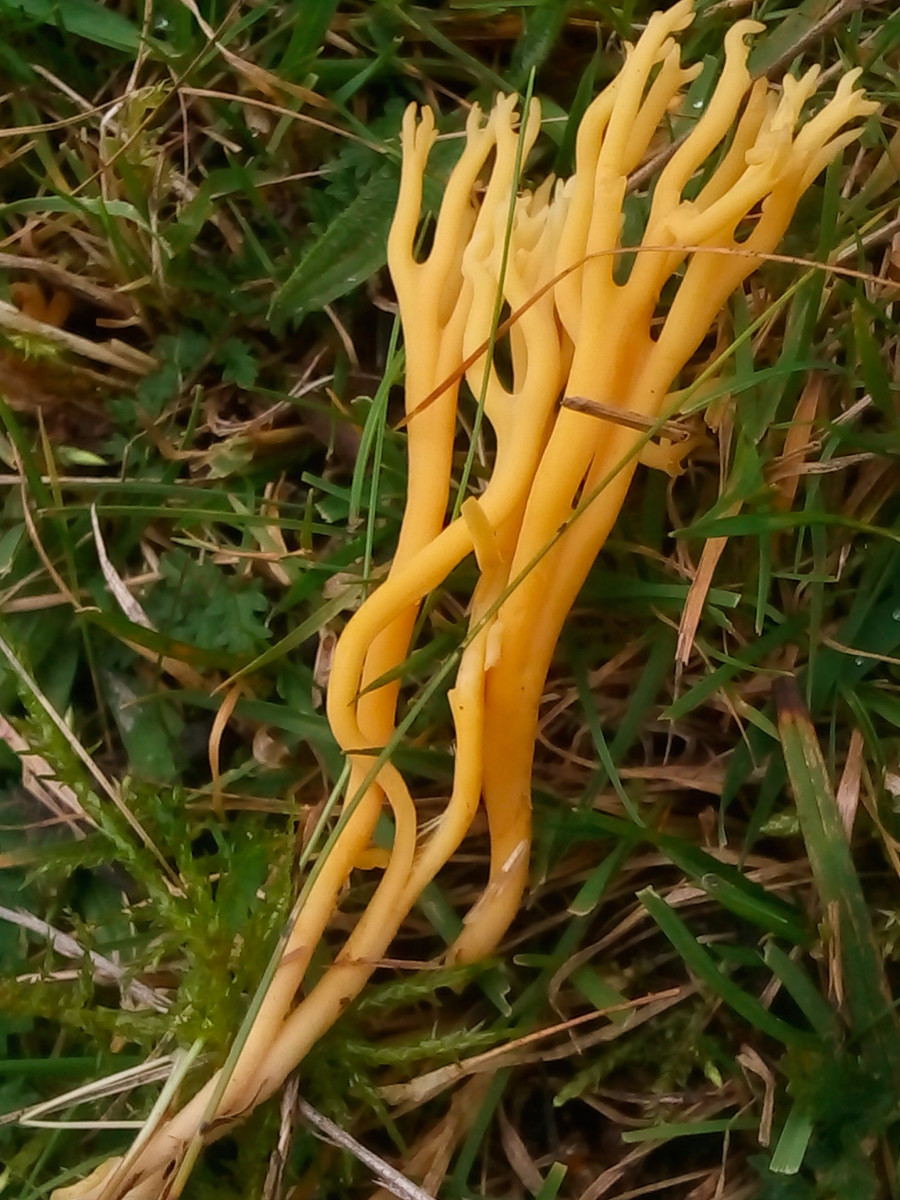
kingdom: Fungi
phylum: Basidiomycota
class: Agaricomycetes
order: Agaricales
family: Clavariaceae
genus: Clavulinopsis
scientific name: Clavulinopsis corniculata
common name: eng-køllesvamp
